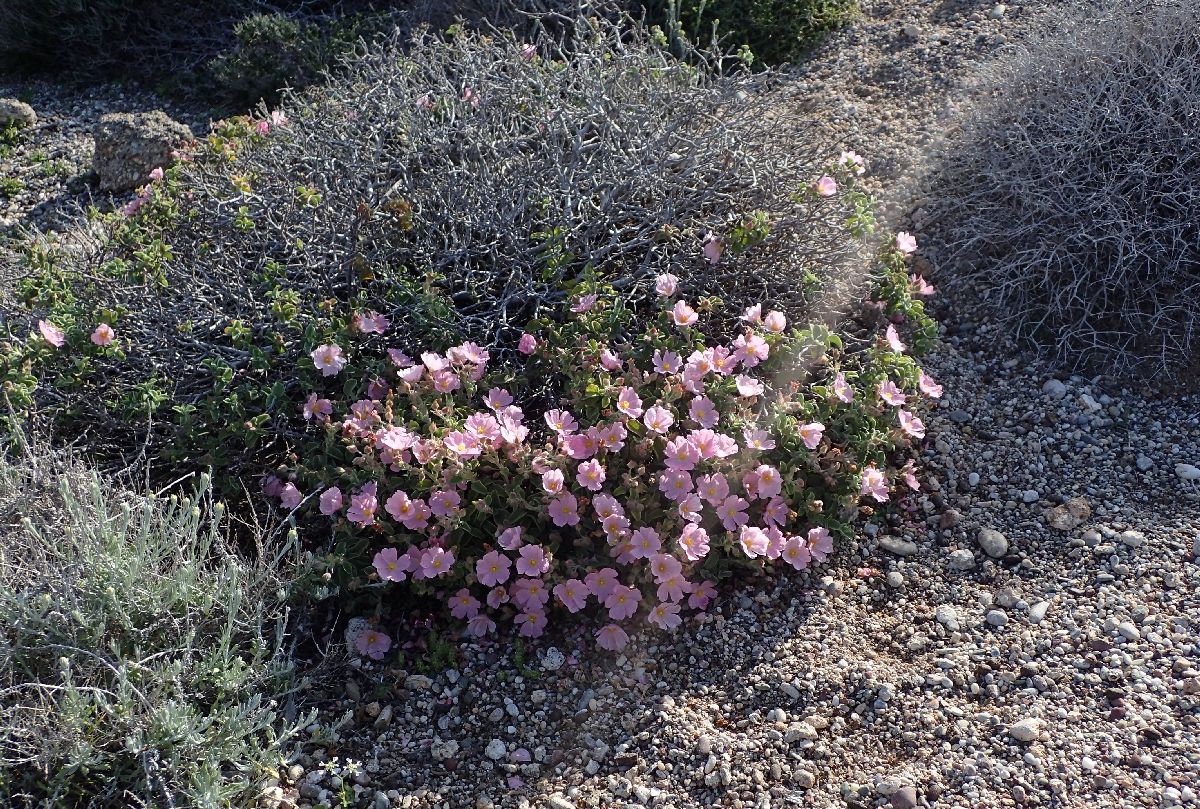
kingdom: Plantae
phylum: Tracheophyta
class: Magnoliopsida
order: Malvales
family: Cistaceae
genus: Cistus
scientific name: Cistus parviflorus
